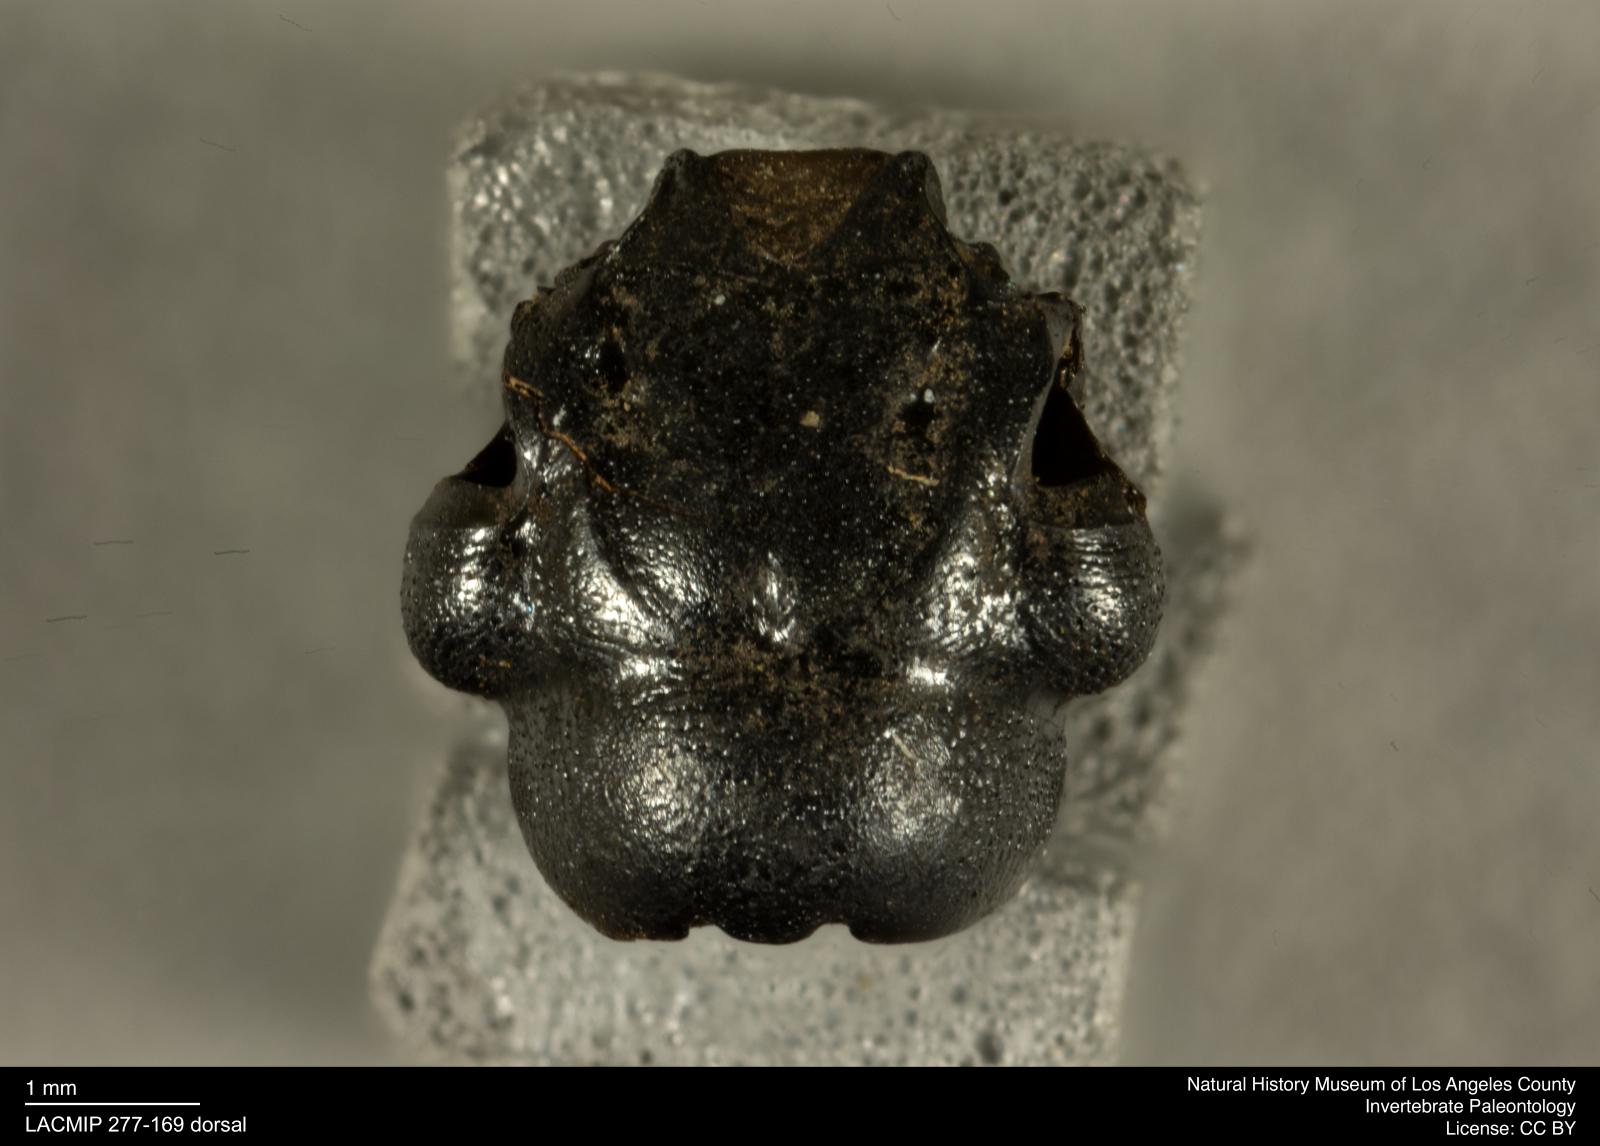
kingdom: Animalia
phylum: Arthropoda
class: Insecta
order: Coleoptera
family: Staphylinidae
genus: Nicrophorus
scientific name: Nicrophorus marginatus
